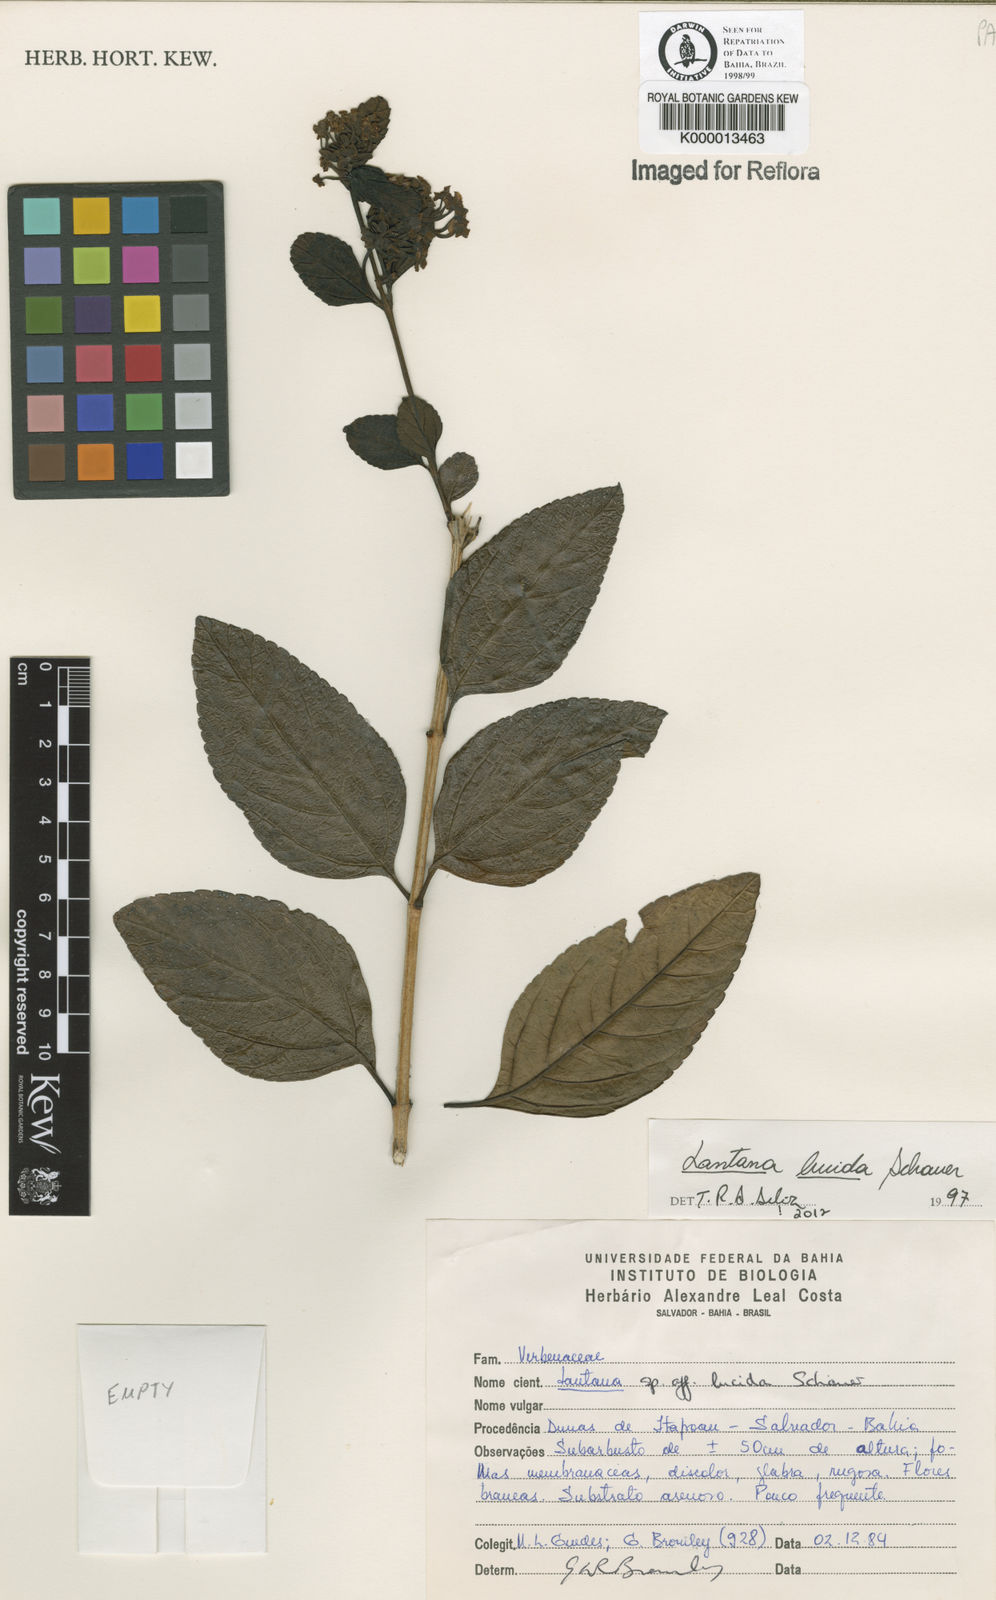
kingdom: Plantae
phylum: Tracheophyta
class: Magnoliopsida
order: Lamiales
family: Verbenaceae
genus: Lantana
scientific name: Lantana lucida
